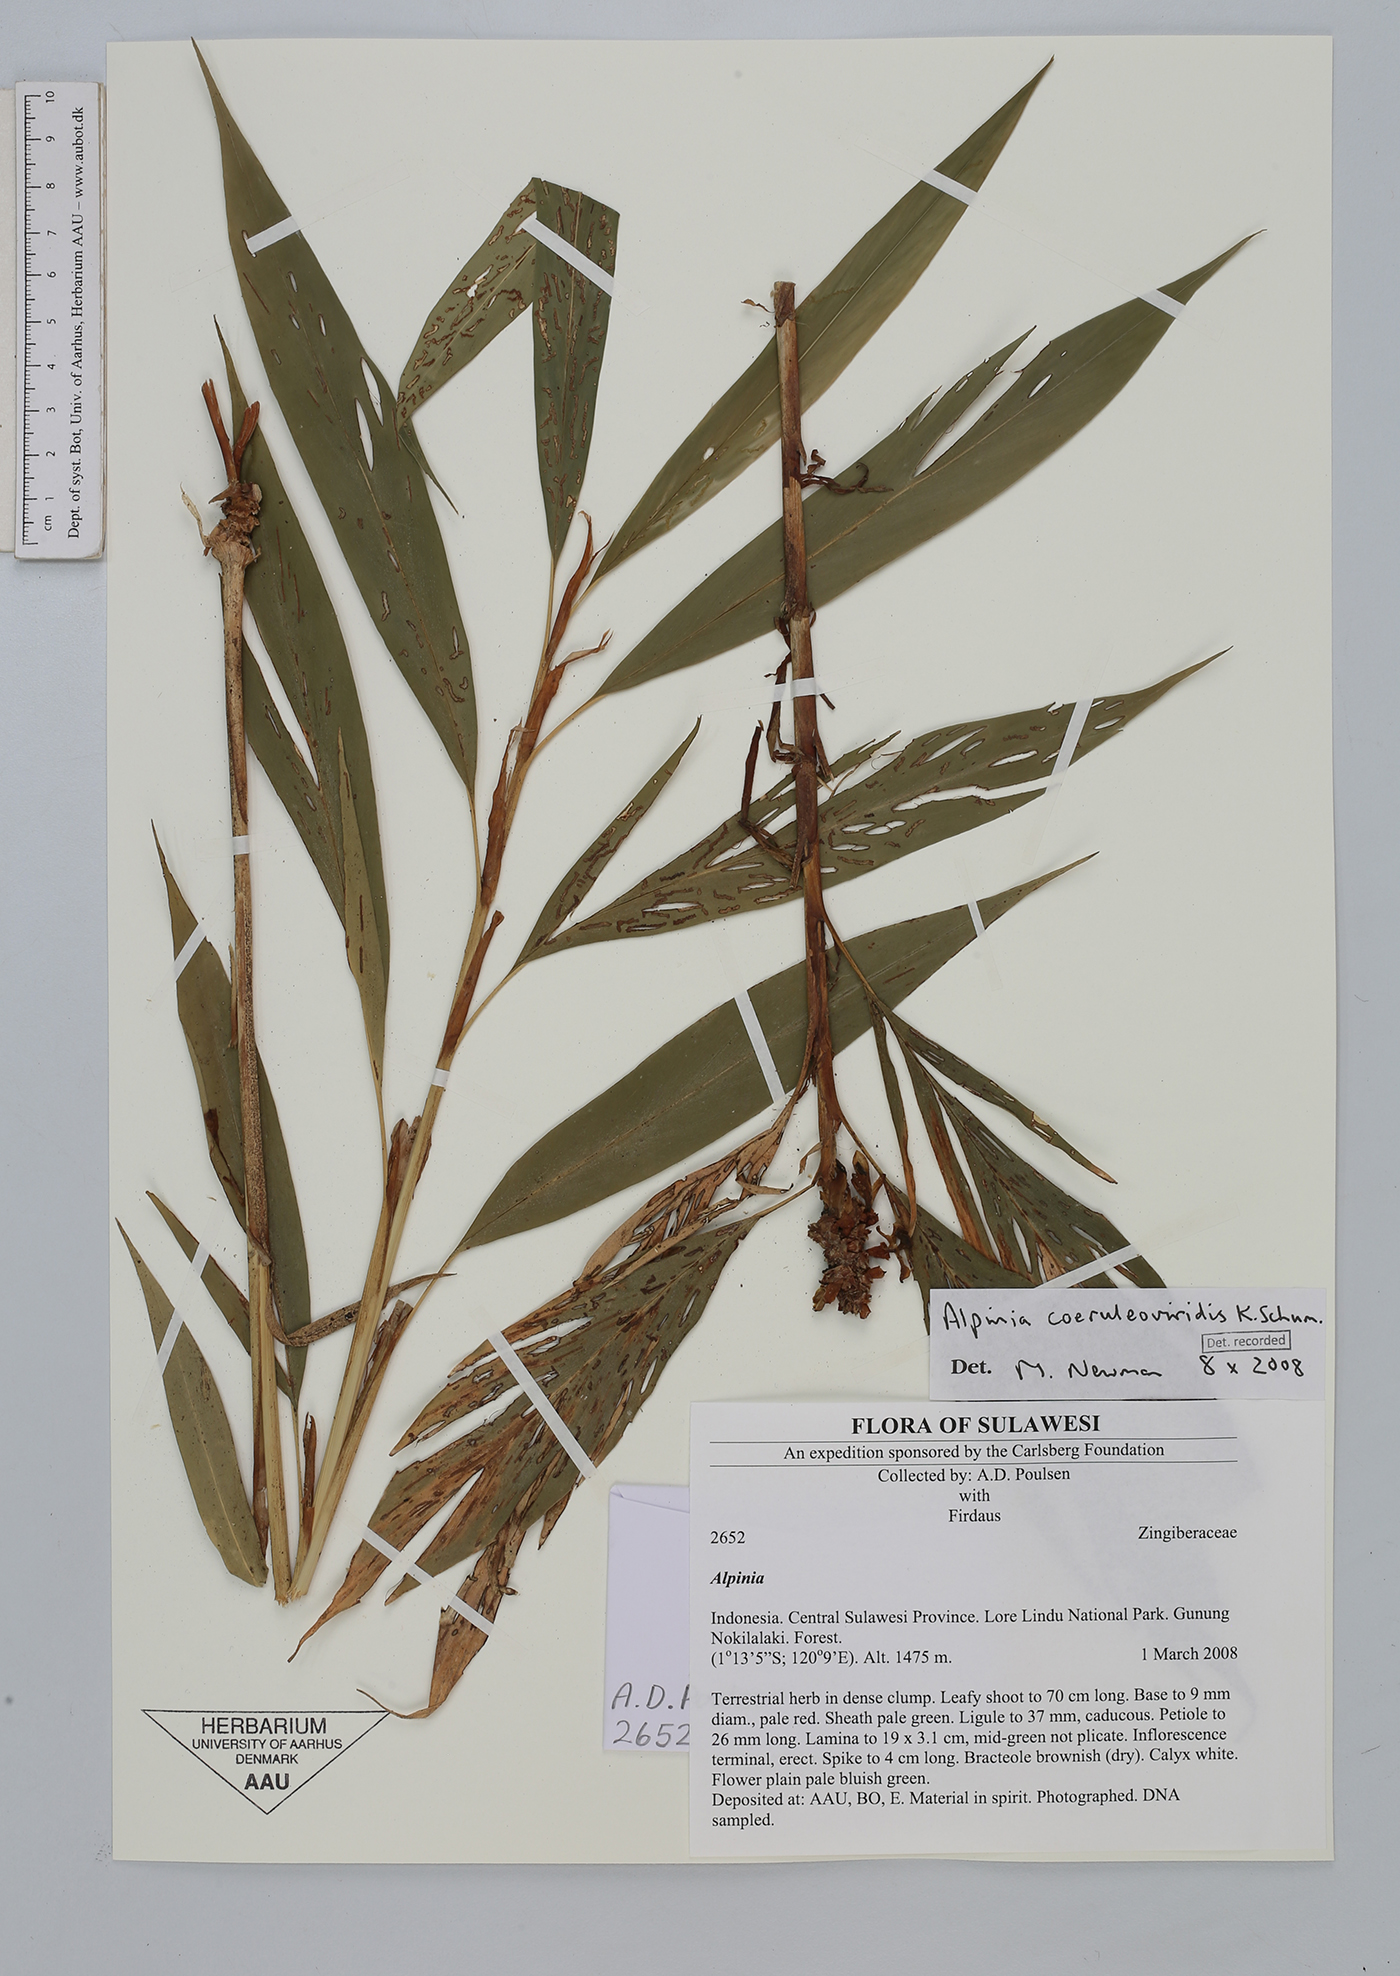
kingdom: Plantae
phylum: Tracheophyta
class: Liliopsida
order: Zingiberales
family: Zingiberaceae
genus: Alpinia
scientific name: Alpinia coeruleoviridis
